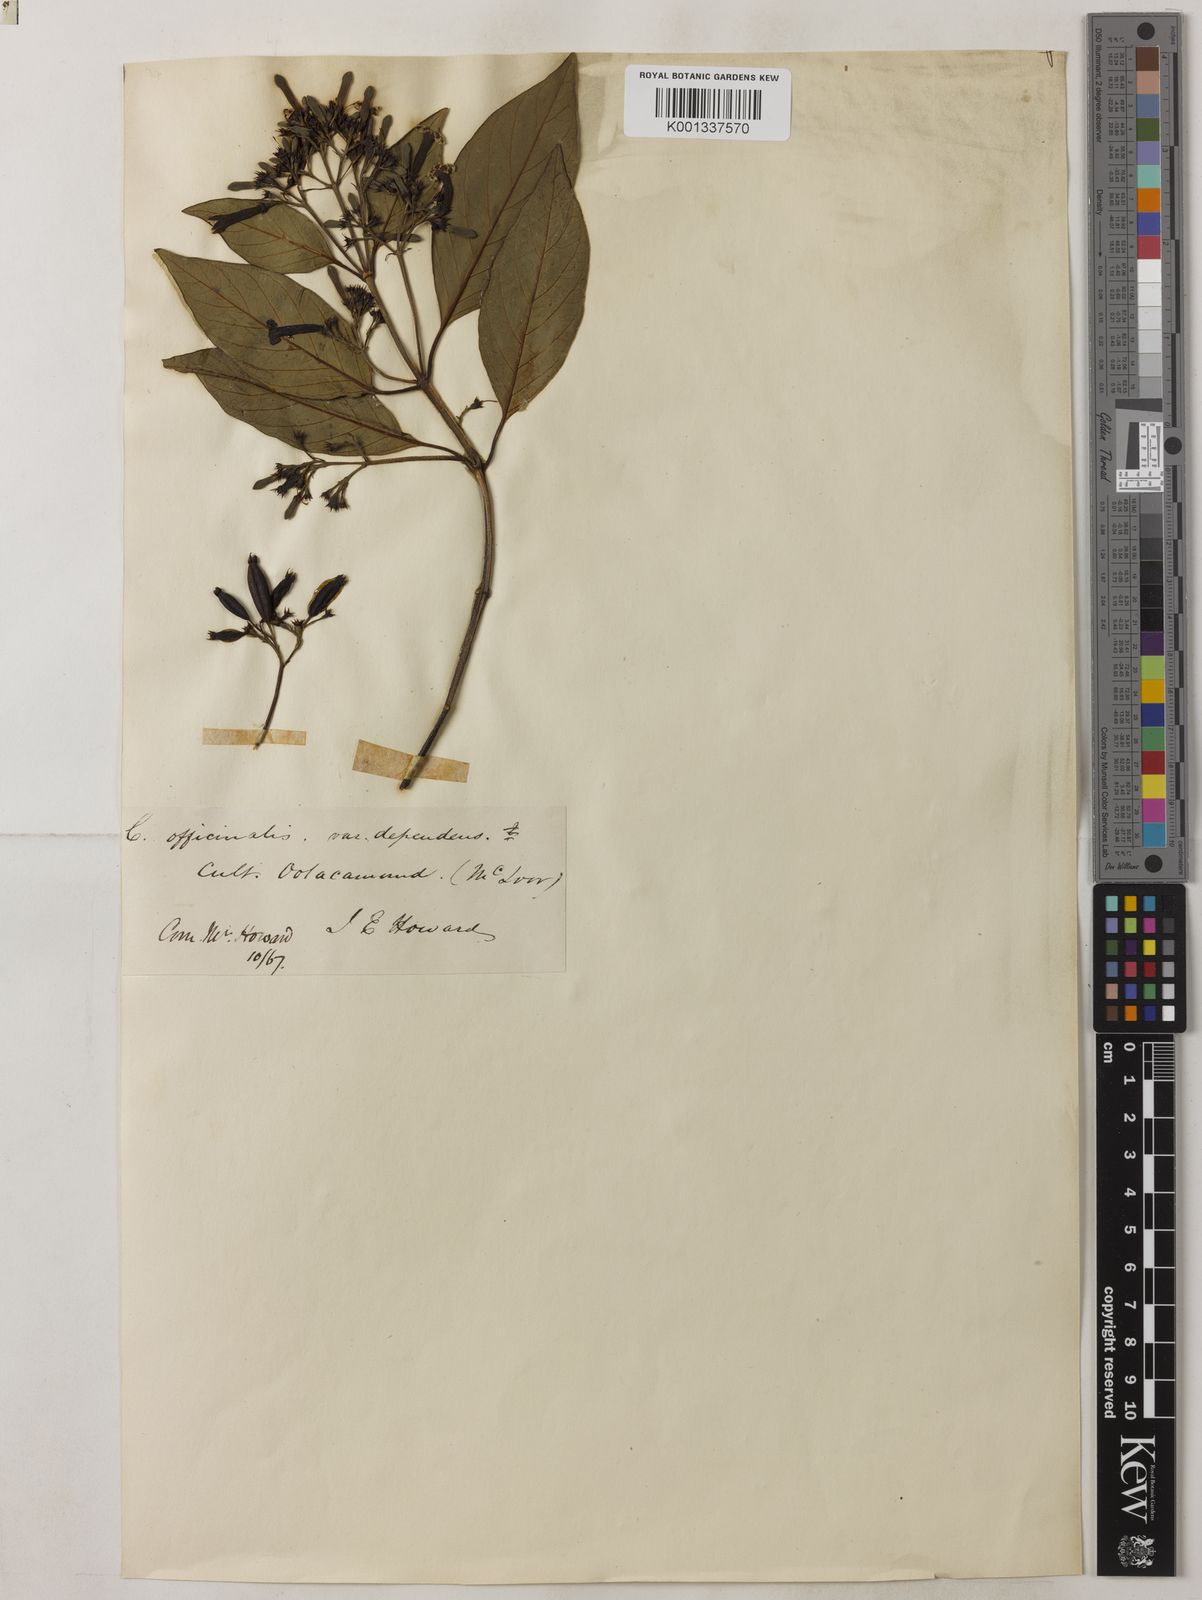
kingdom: Plantae
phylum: Tracheophyta
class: Magnoliopsida
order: Gentianales
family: Rubiaceae
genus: Cinchona
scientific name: Cinchona officinalis
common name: Lojabark
